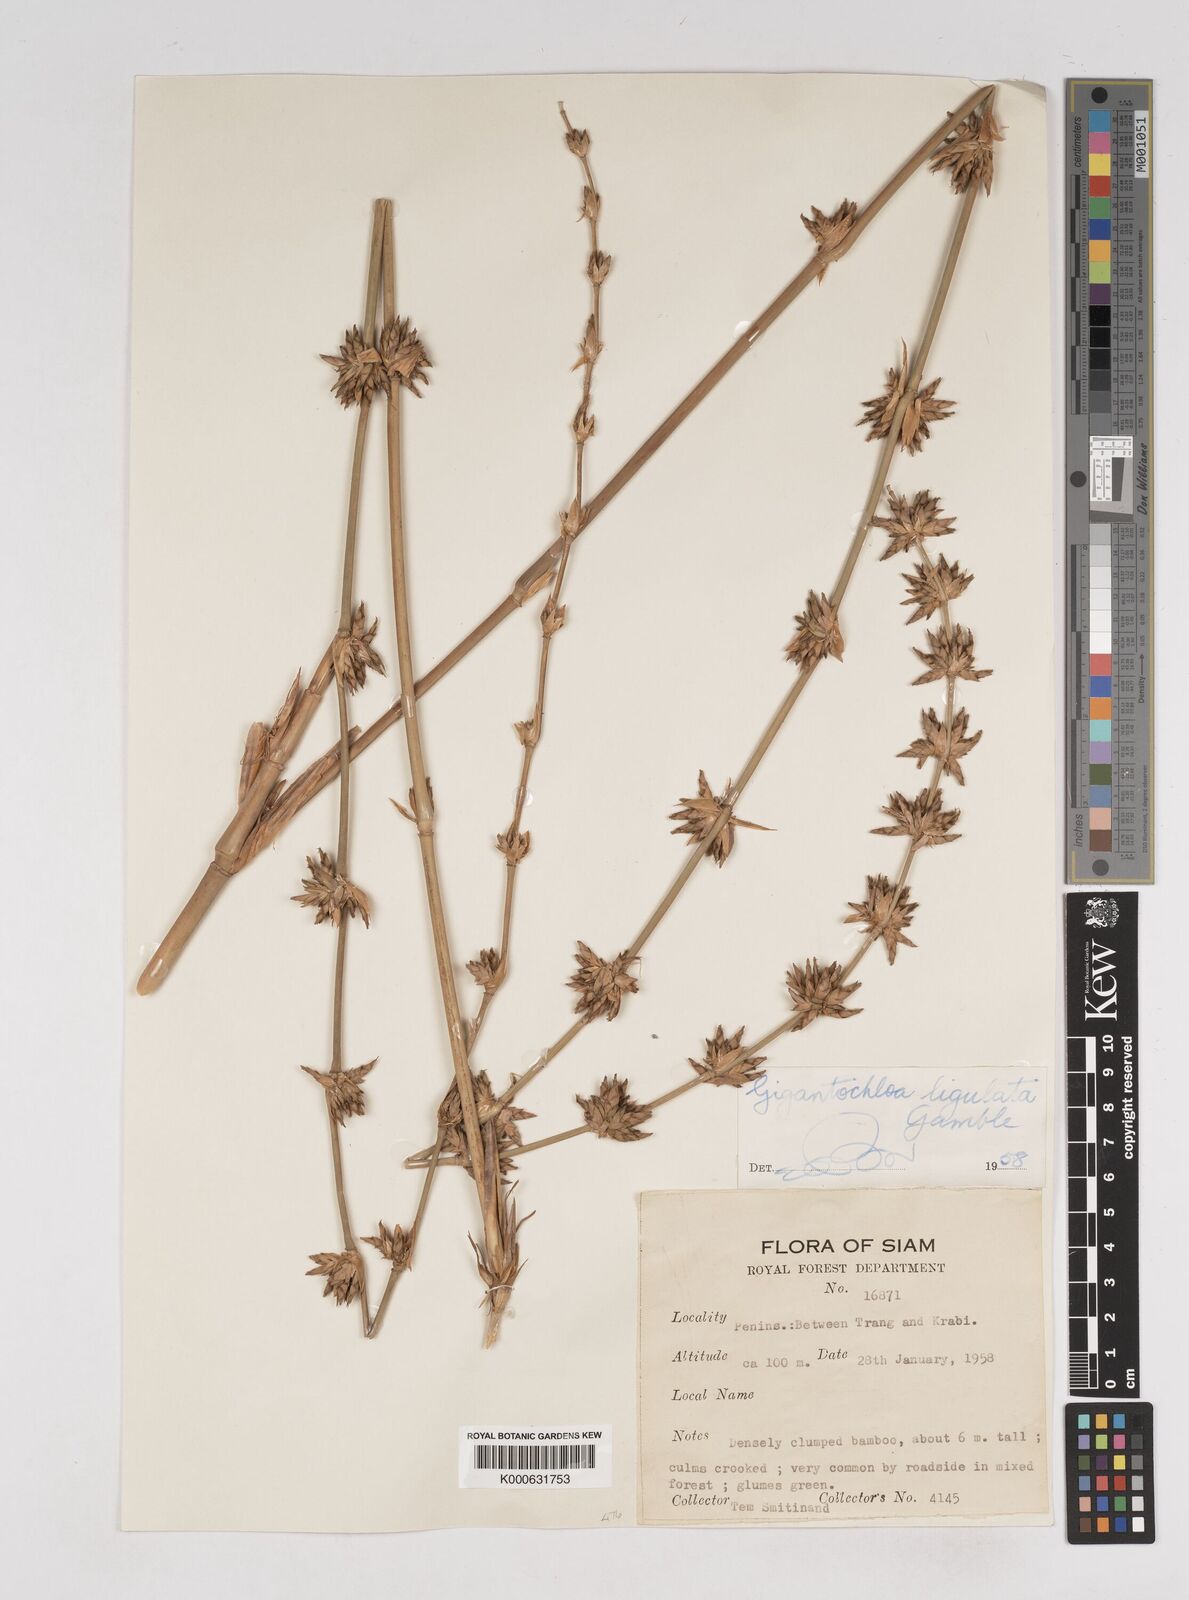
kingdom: Plantae
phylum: Tracheophyta
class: Liliopsida
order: Poales
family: Poaceae
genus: Gigantochloa
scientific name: Gigantochloa ligulata
